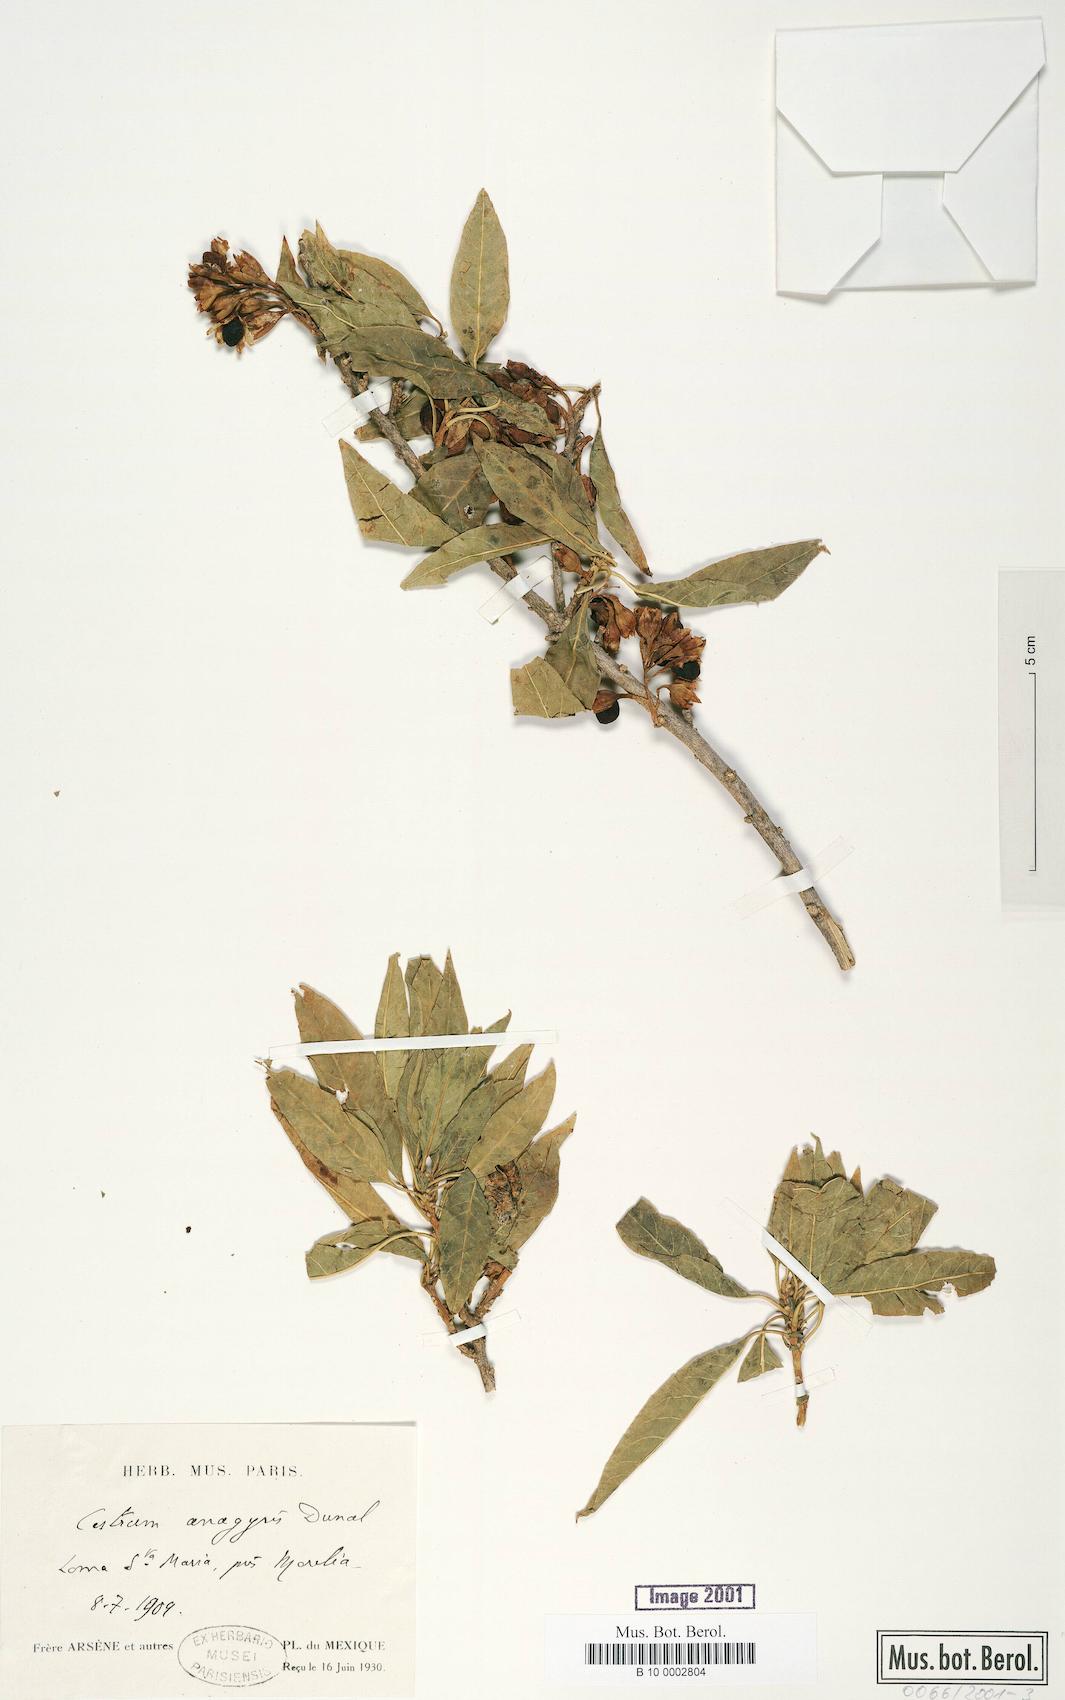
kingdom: Plantae
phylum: Tracheophyta
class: Magnoliopsida
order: Solanales
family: Solanaceae
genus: Cestrum
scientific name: Cestrum aurantiacum
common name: Orange cestrum
